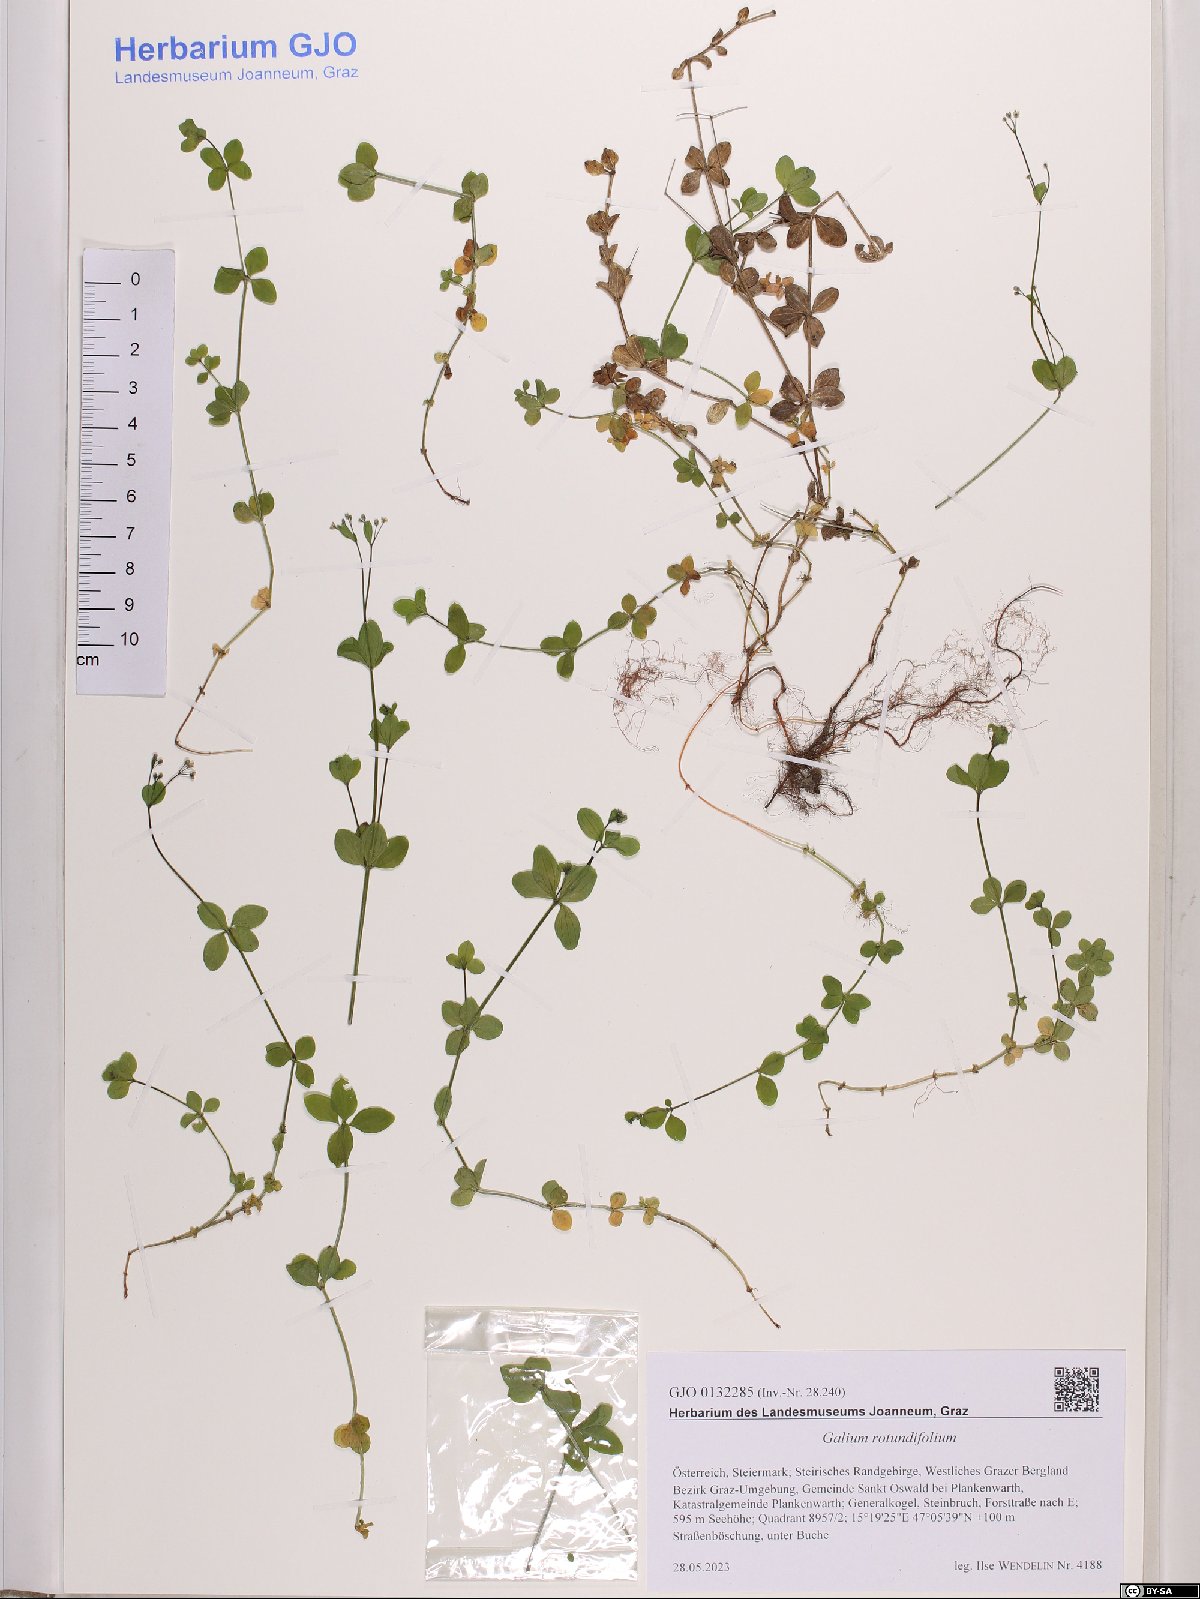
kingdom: Plantae
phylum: Tracheophyta
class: Magnoliopsida
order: Gentianales
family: Rubiaceae
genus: Galium
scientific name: Galium rotundifolium
